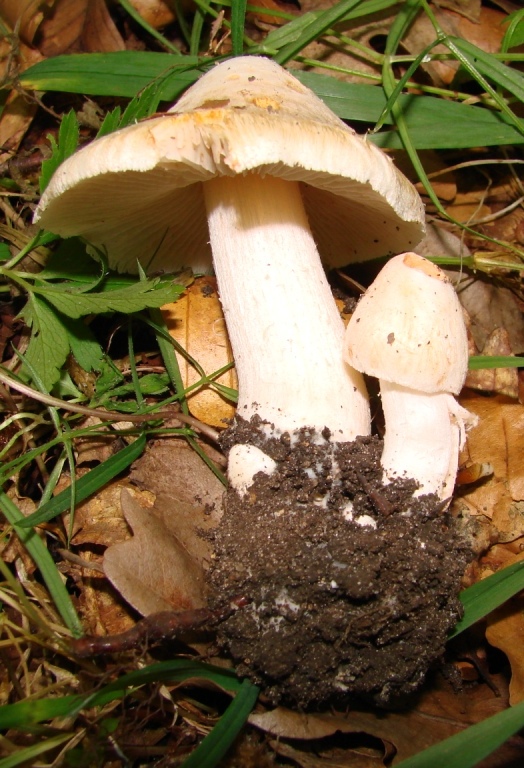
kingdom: Fungi
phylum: Basidiomycota
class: Agaricomycetes
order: Agaricales
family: Inocybaceae
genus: Inosperma
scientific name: Inosperma erubescens
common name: giftig trævlhat
